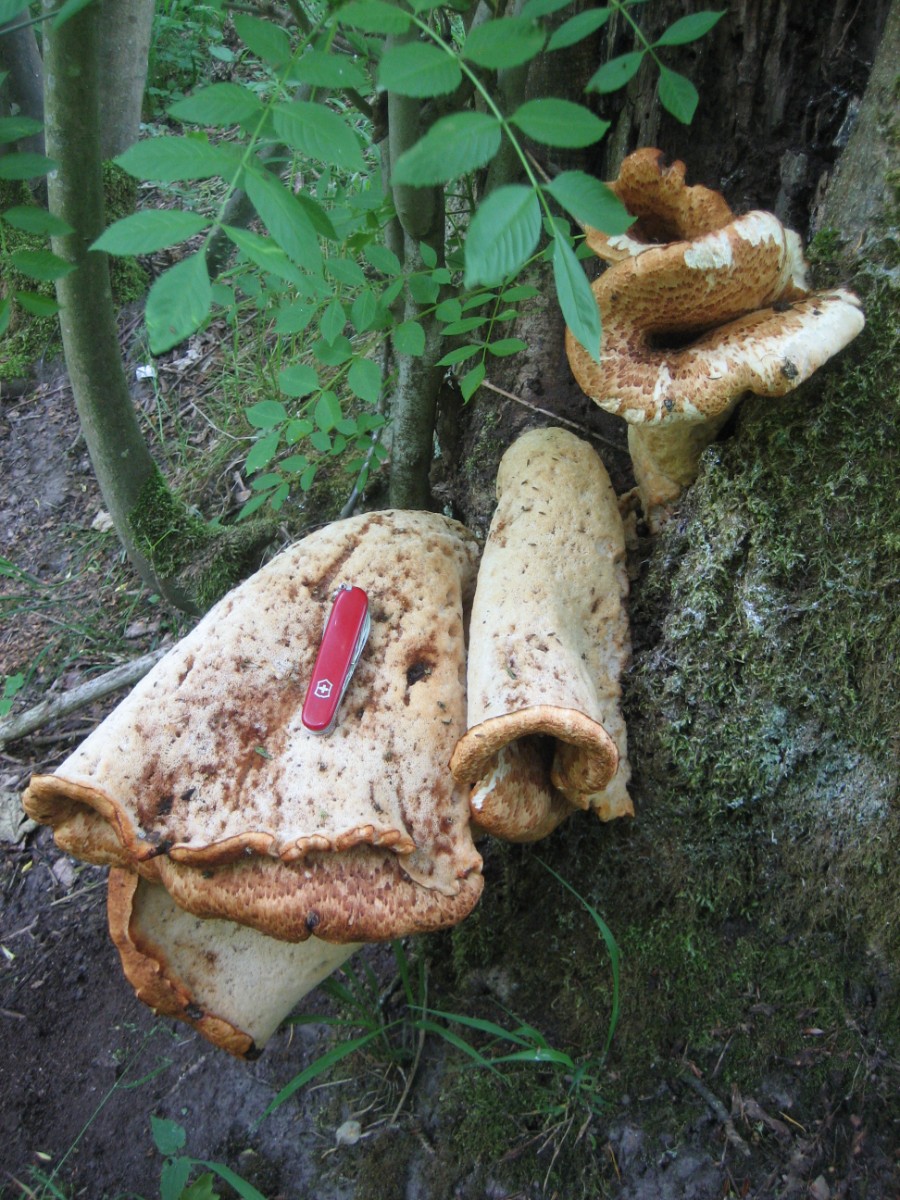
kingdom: Fungi
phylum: Basidiomycota
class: Agaricomycetes
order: Polyporales
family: Polyporaceae
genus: Cerioporus
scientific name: Cerioporus squamosus
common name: skællet stilkporesvamp
